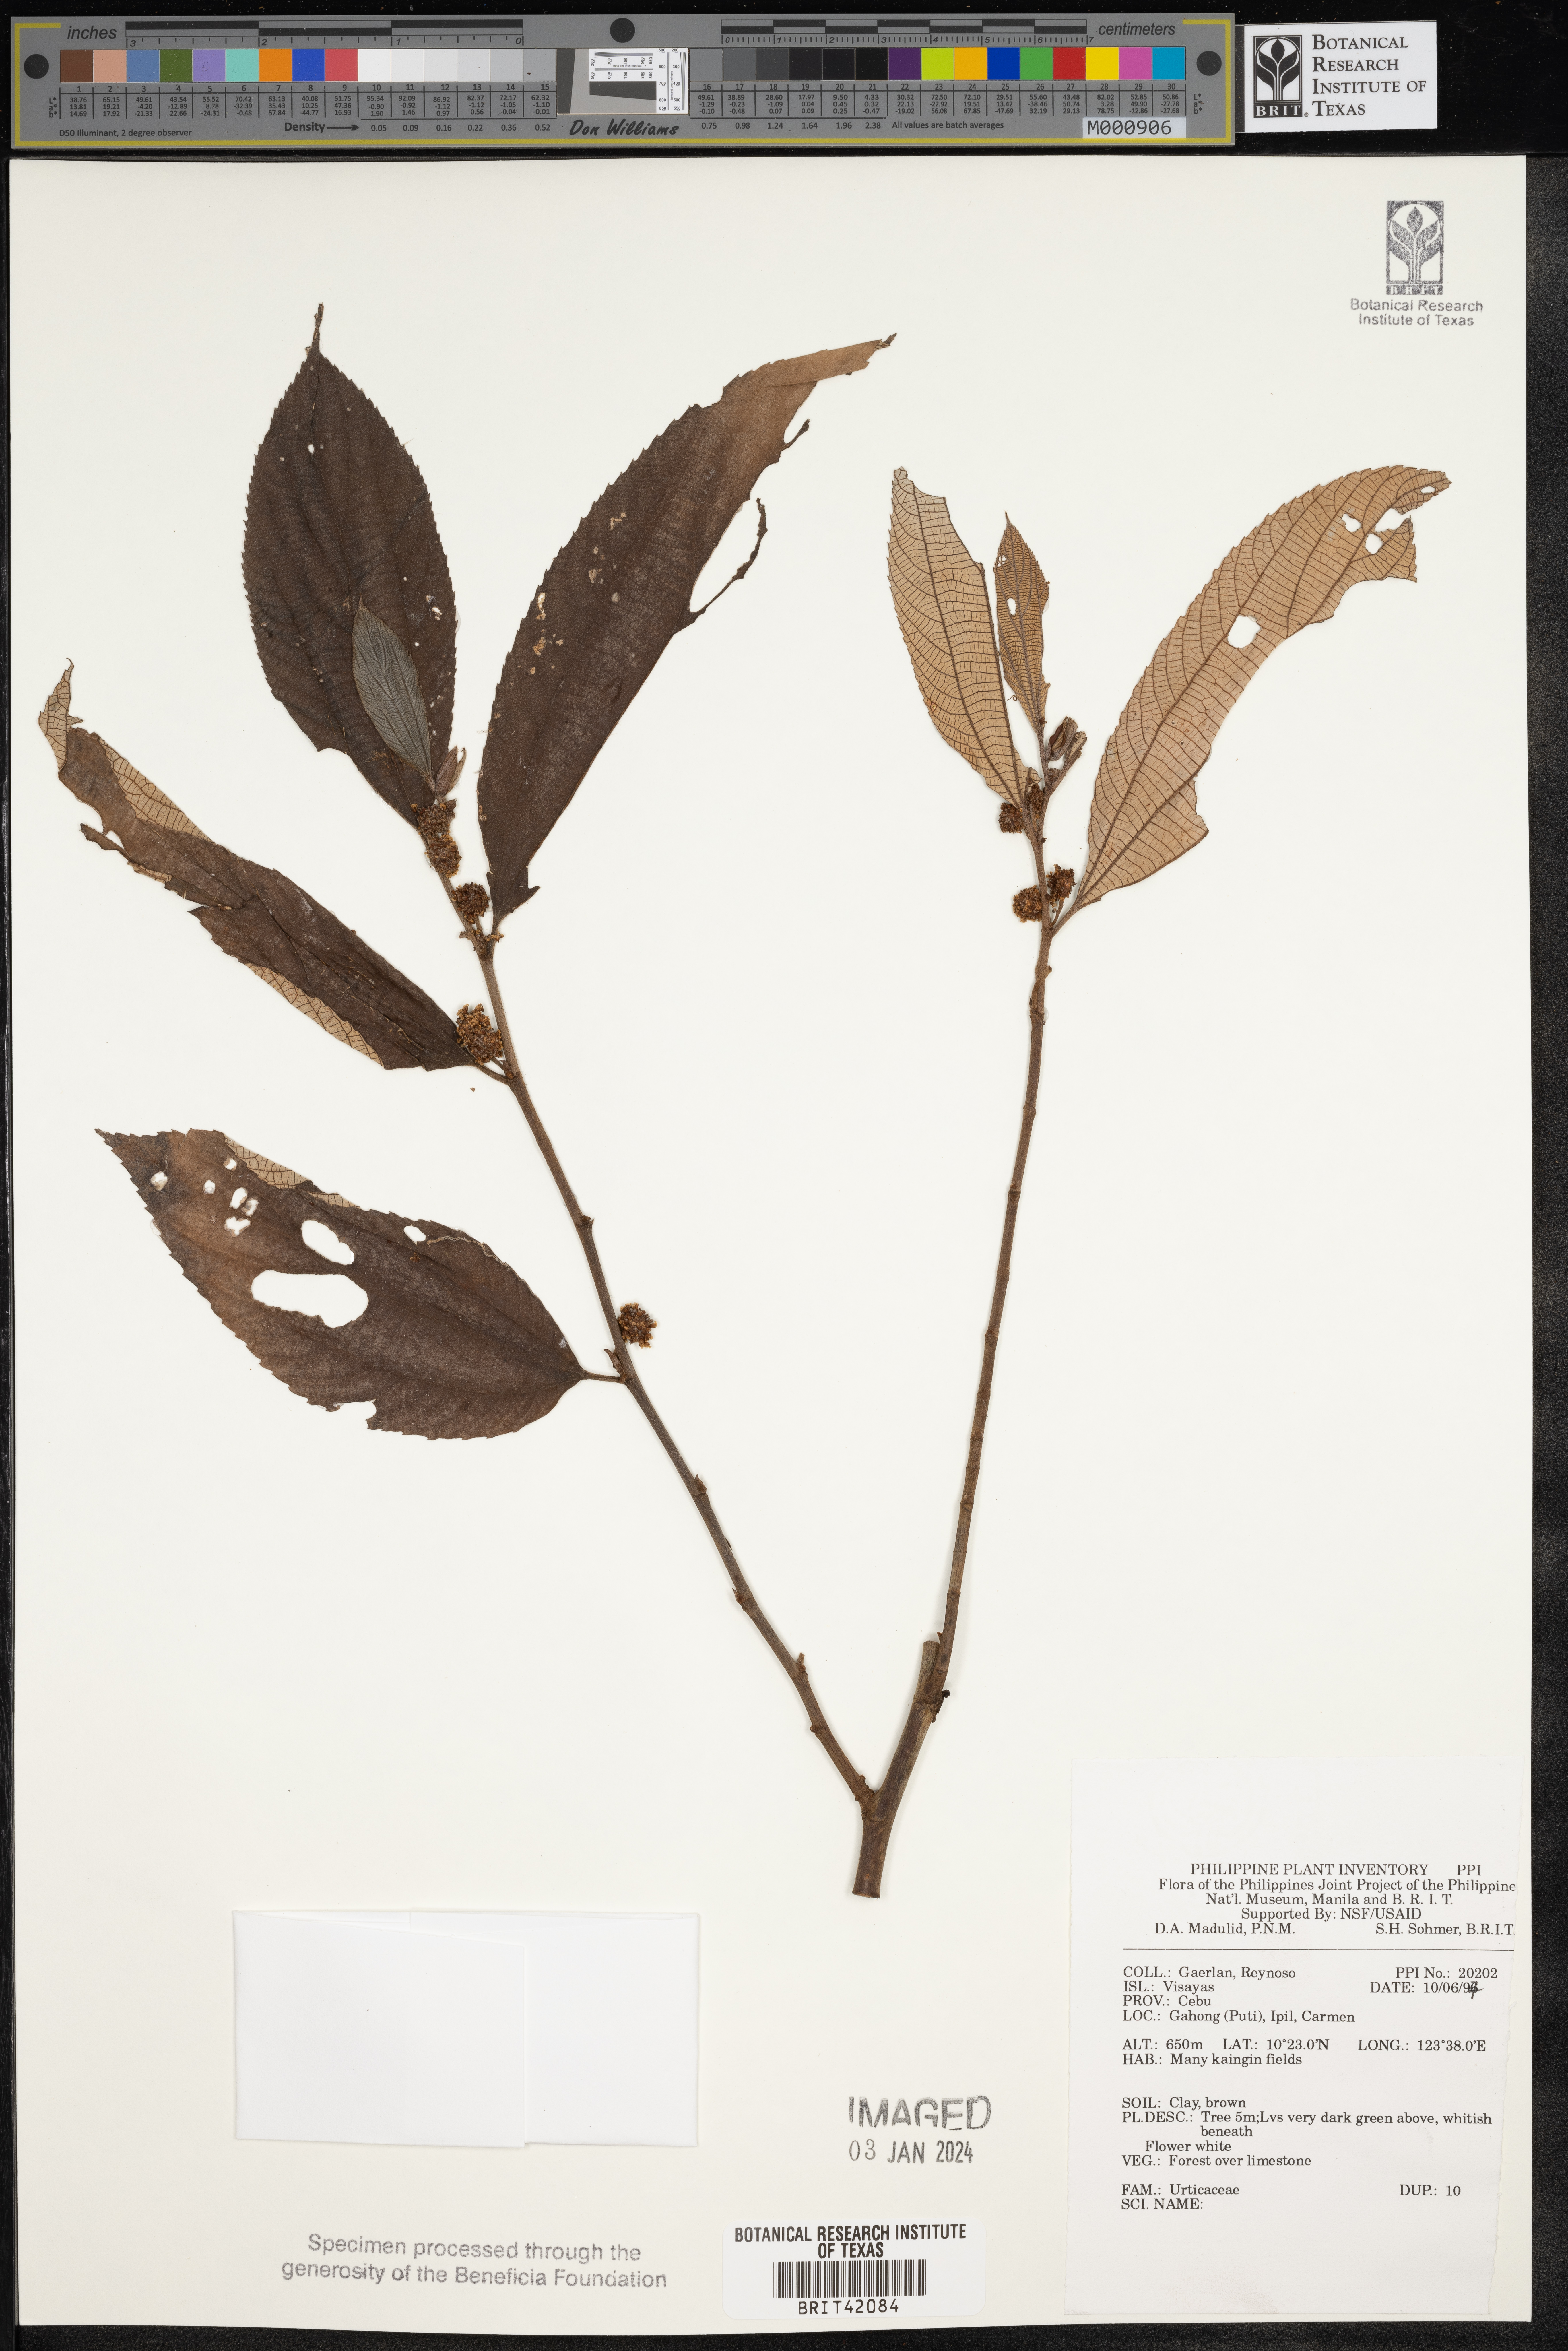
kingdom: Plantae
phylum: Tracheophyta
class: Magnoliopsida
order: Rosales
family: Urticaceae
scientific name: Urticaceae
